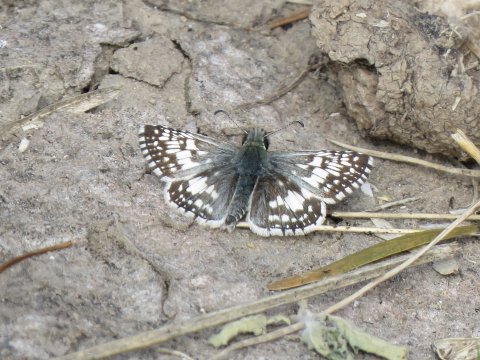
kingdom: Animalia
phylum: Arthropoda
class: Insecta
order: Lepidoptera
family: Hesperiidae
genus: Pyrgus
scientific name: Pyrgus communis
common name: White Checkered-Skipper
